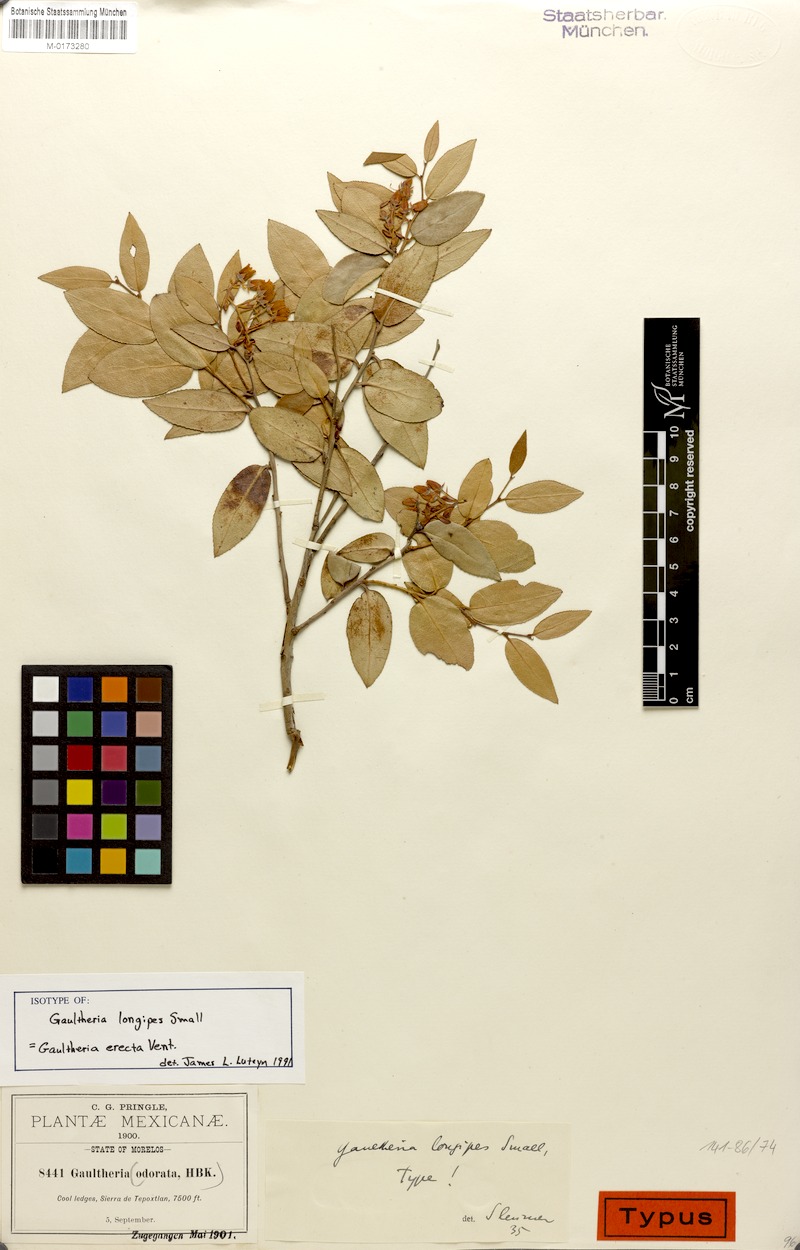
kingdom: Plantae
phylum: Tracheophyta
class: Magnoliopsida
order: Ericales
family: Ericaceae
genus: Gaultheria
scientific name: Gaultheria erecta
